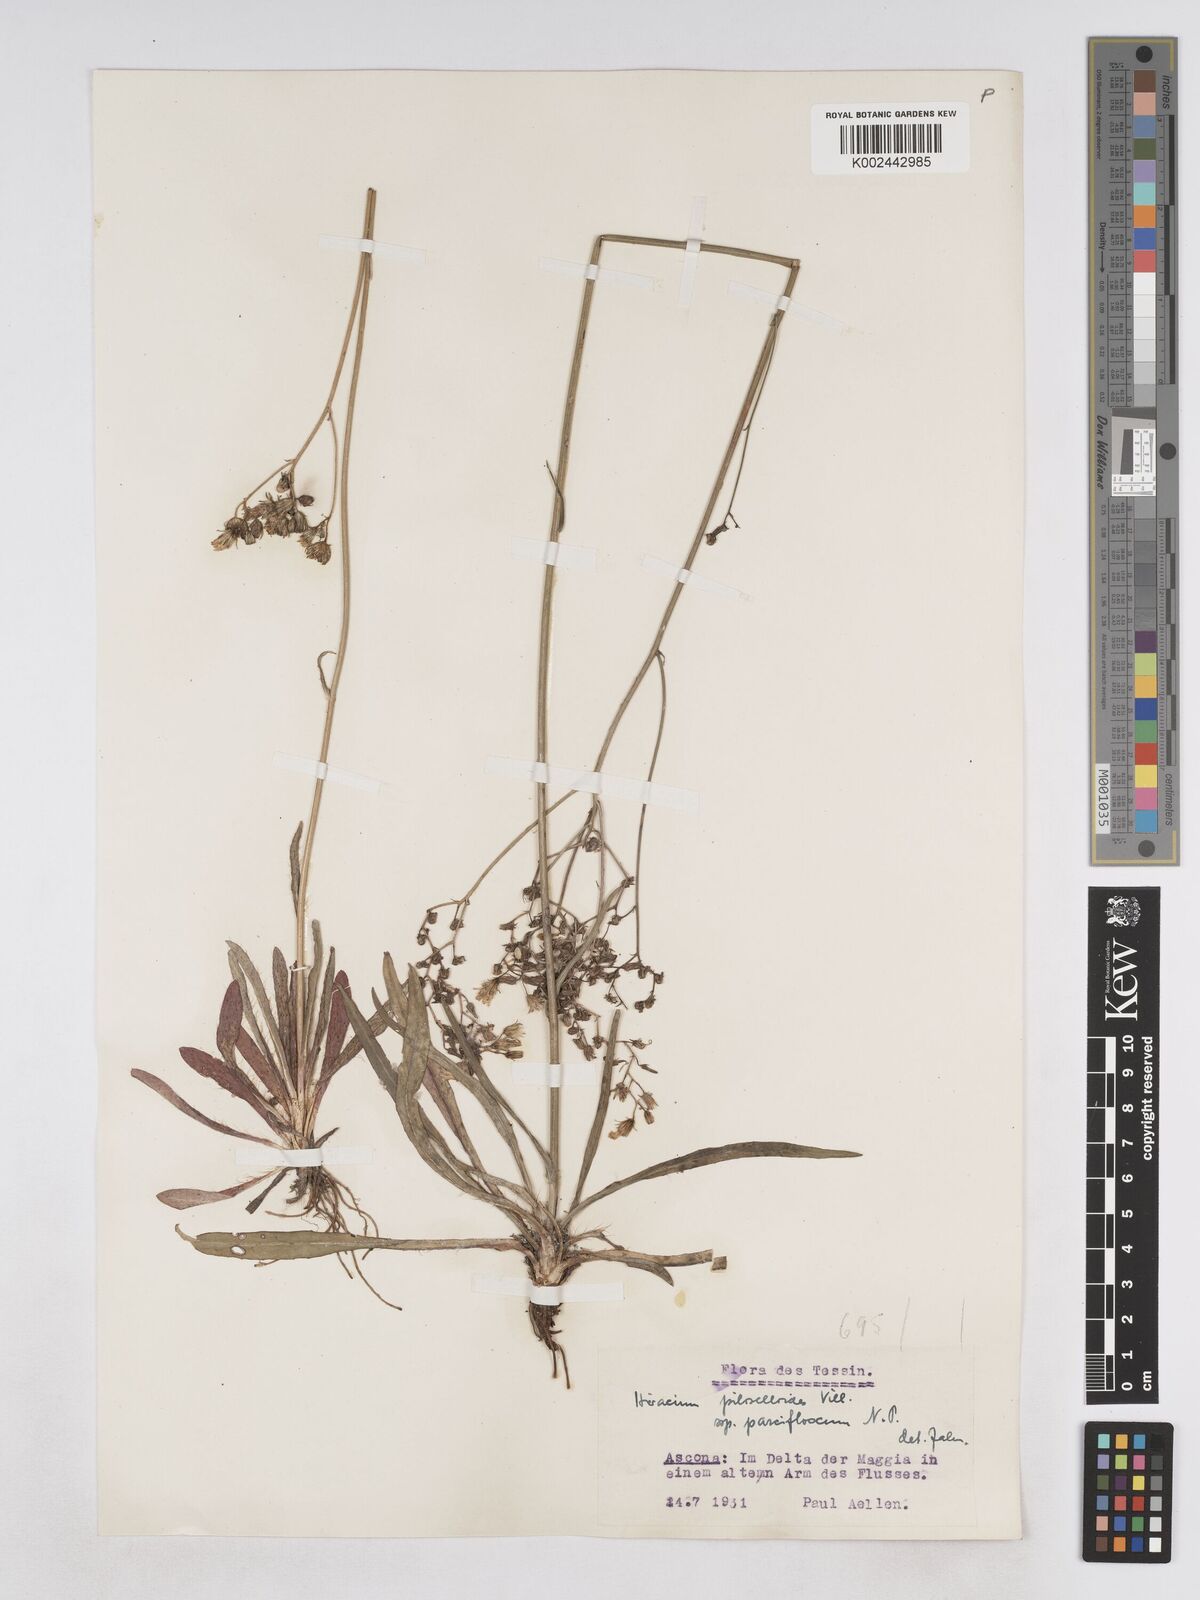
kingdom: Plantae
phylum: Tracheophyta
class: Magnoliopsida
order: Asterales
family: Asteraceae
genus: Pilosella
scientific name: Pilosella piloselloides
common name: Glaucous king-devil
